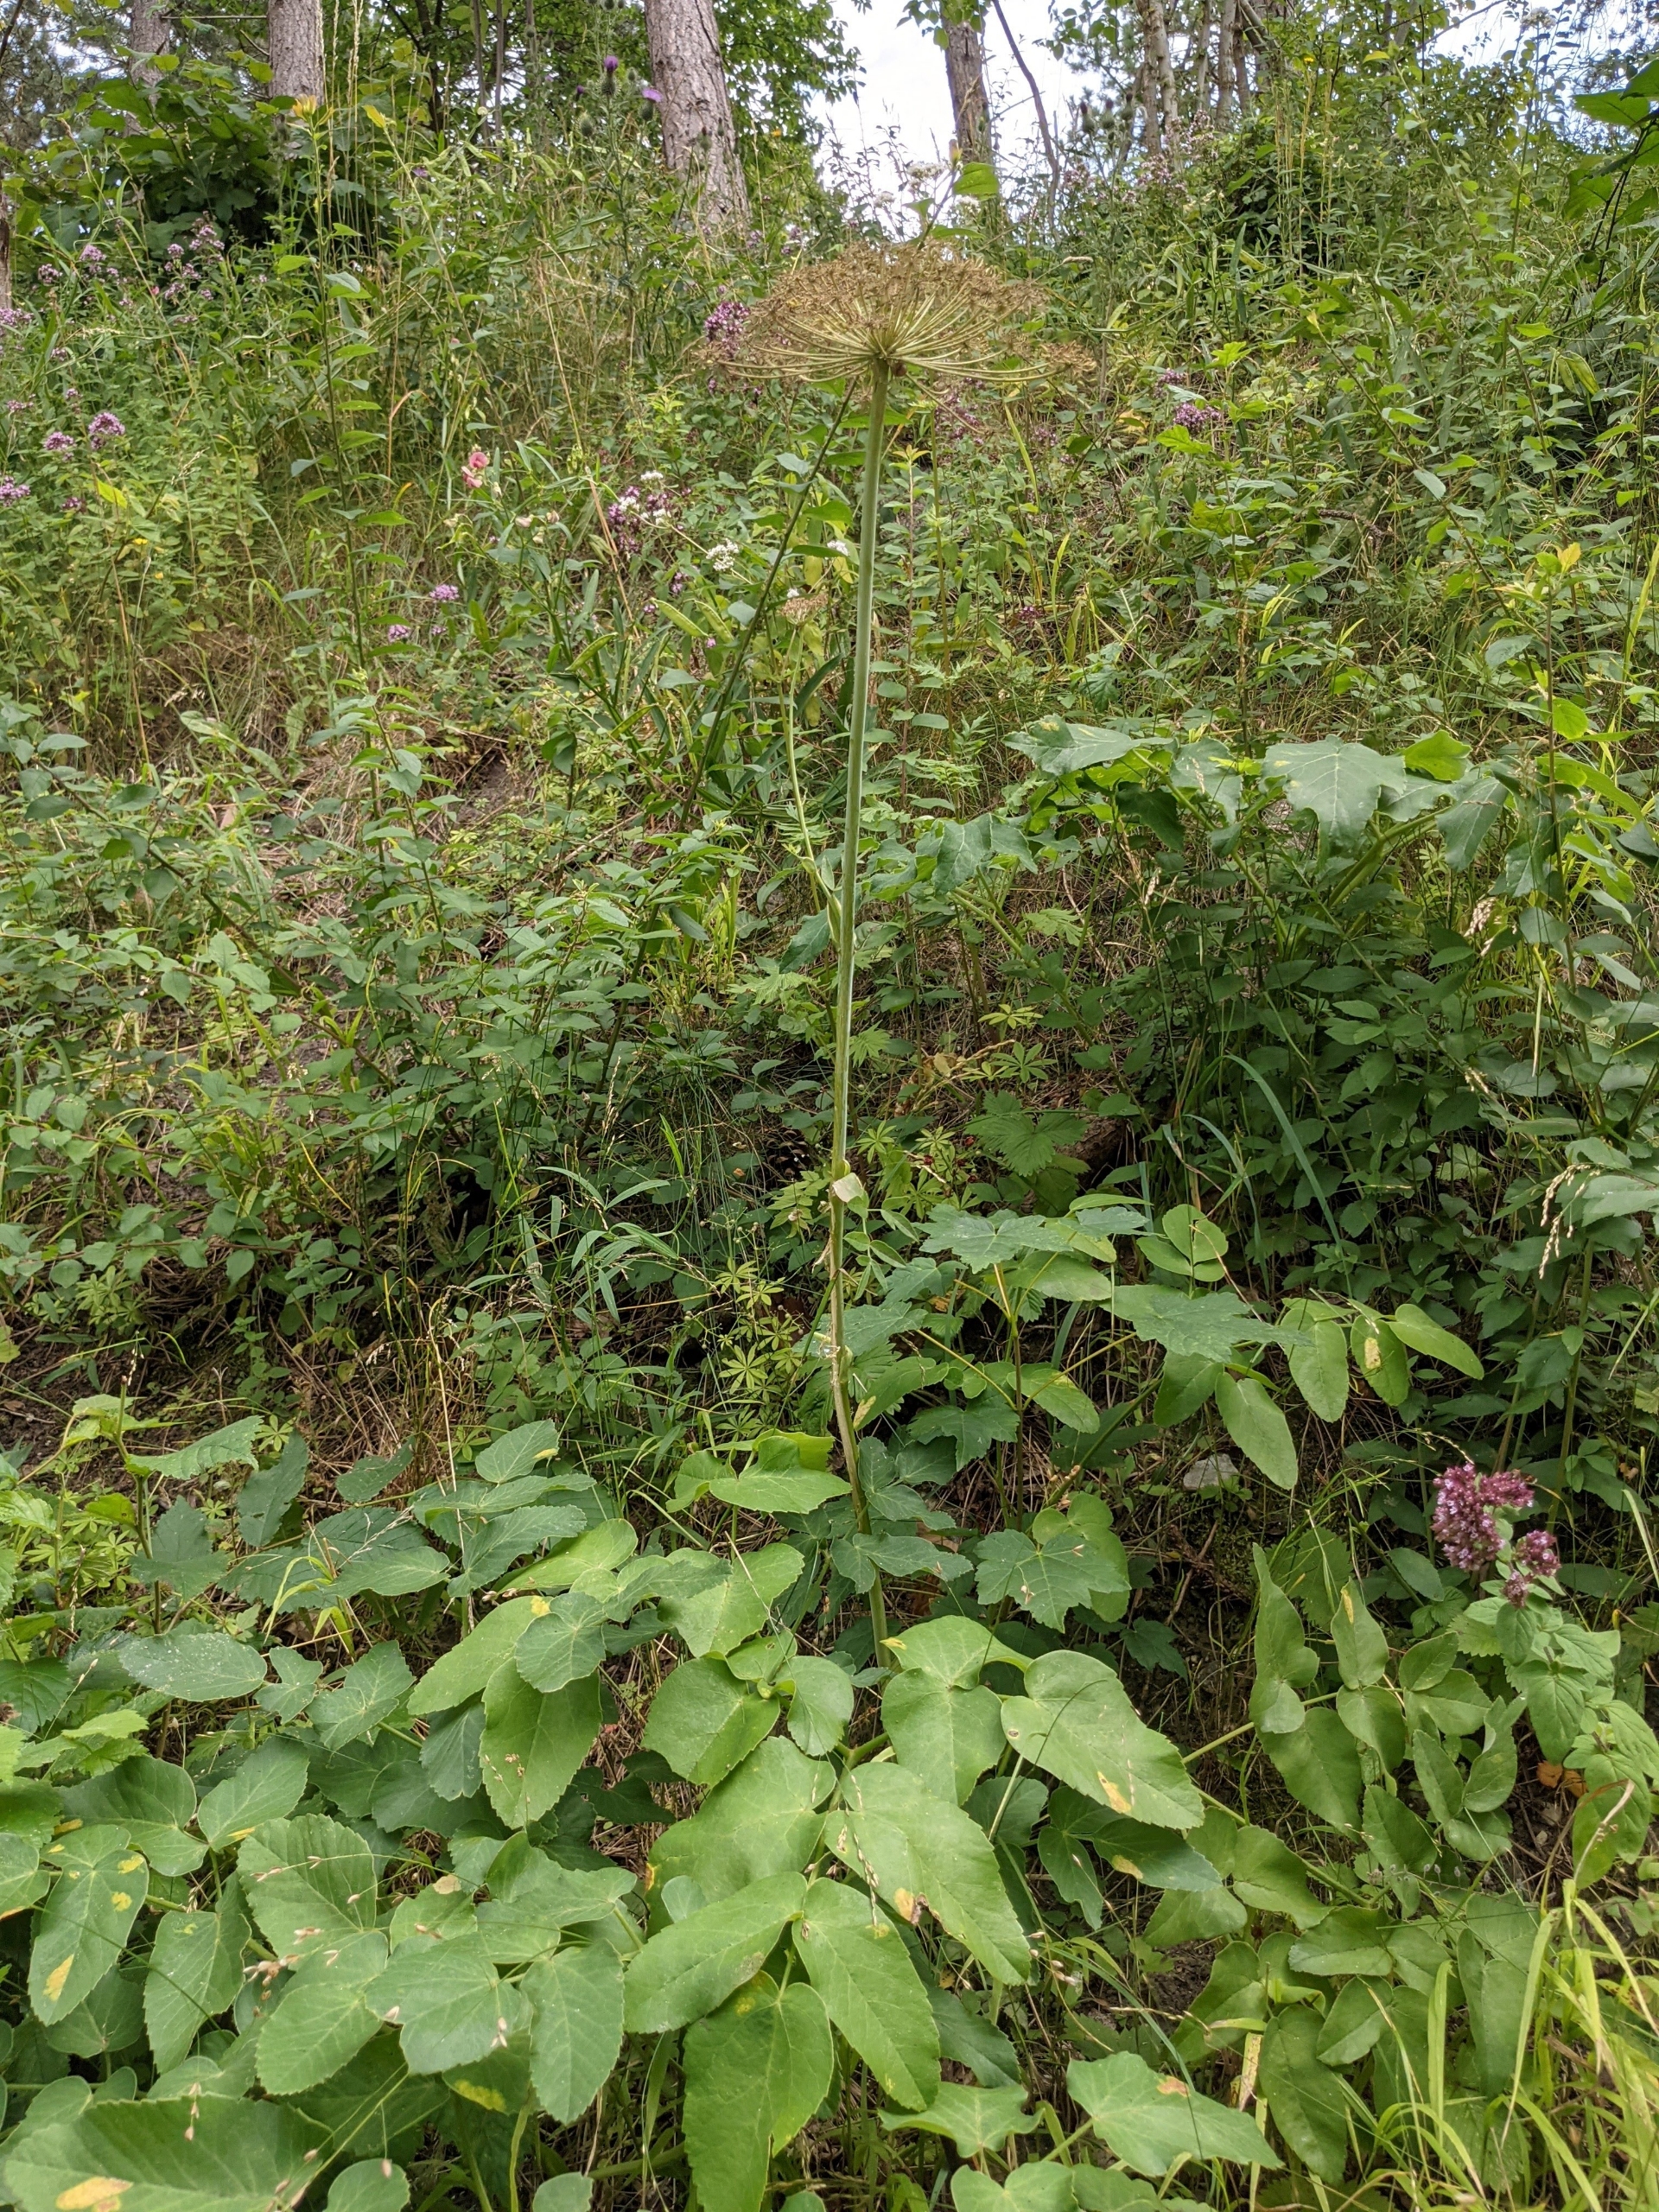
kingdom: Plantae
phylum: Tracheophyta
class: Magnoliopsida
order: Apiales
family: Apiaceae
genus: Laserpitium
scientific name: Laserpitium latifolium
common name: Foldfrø
